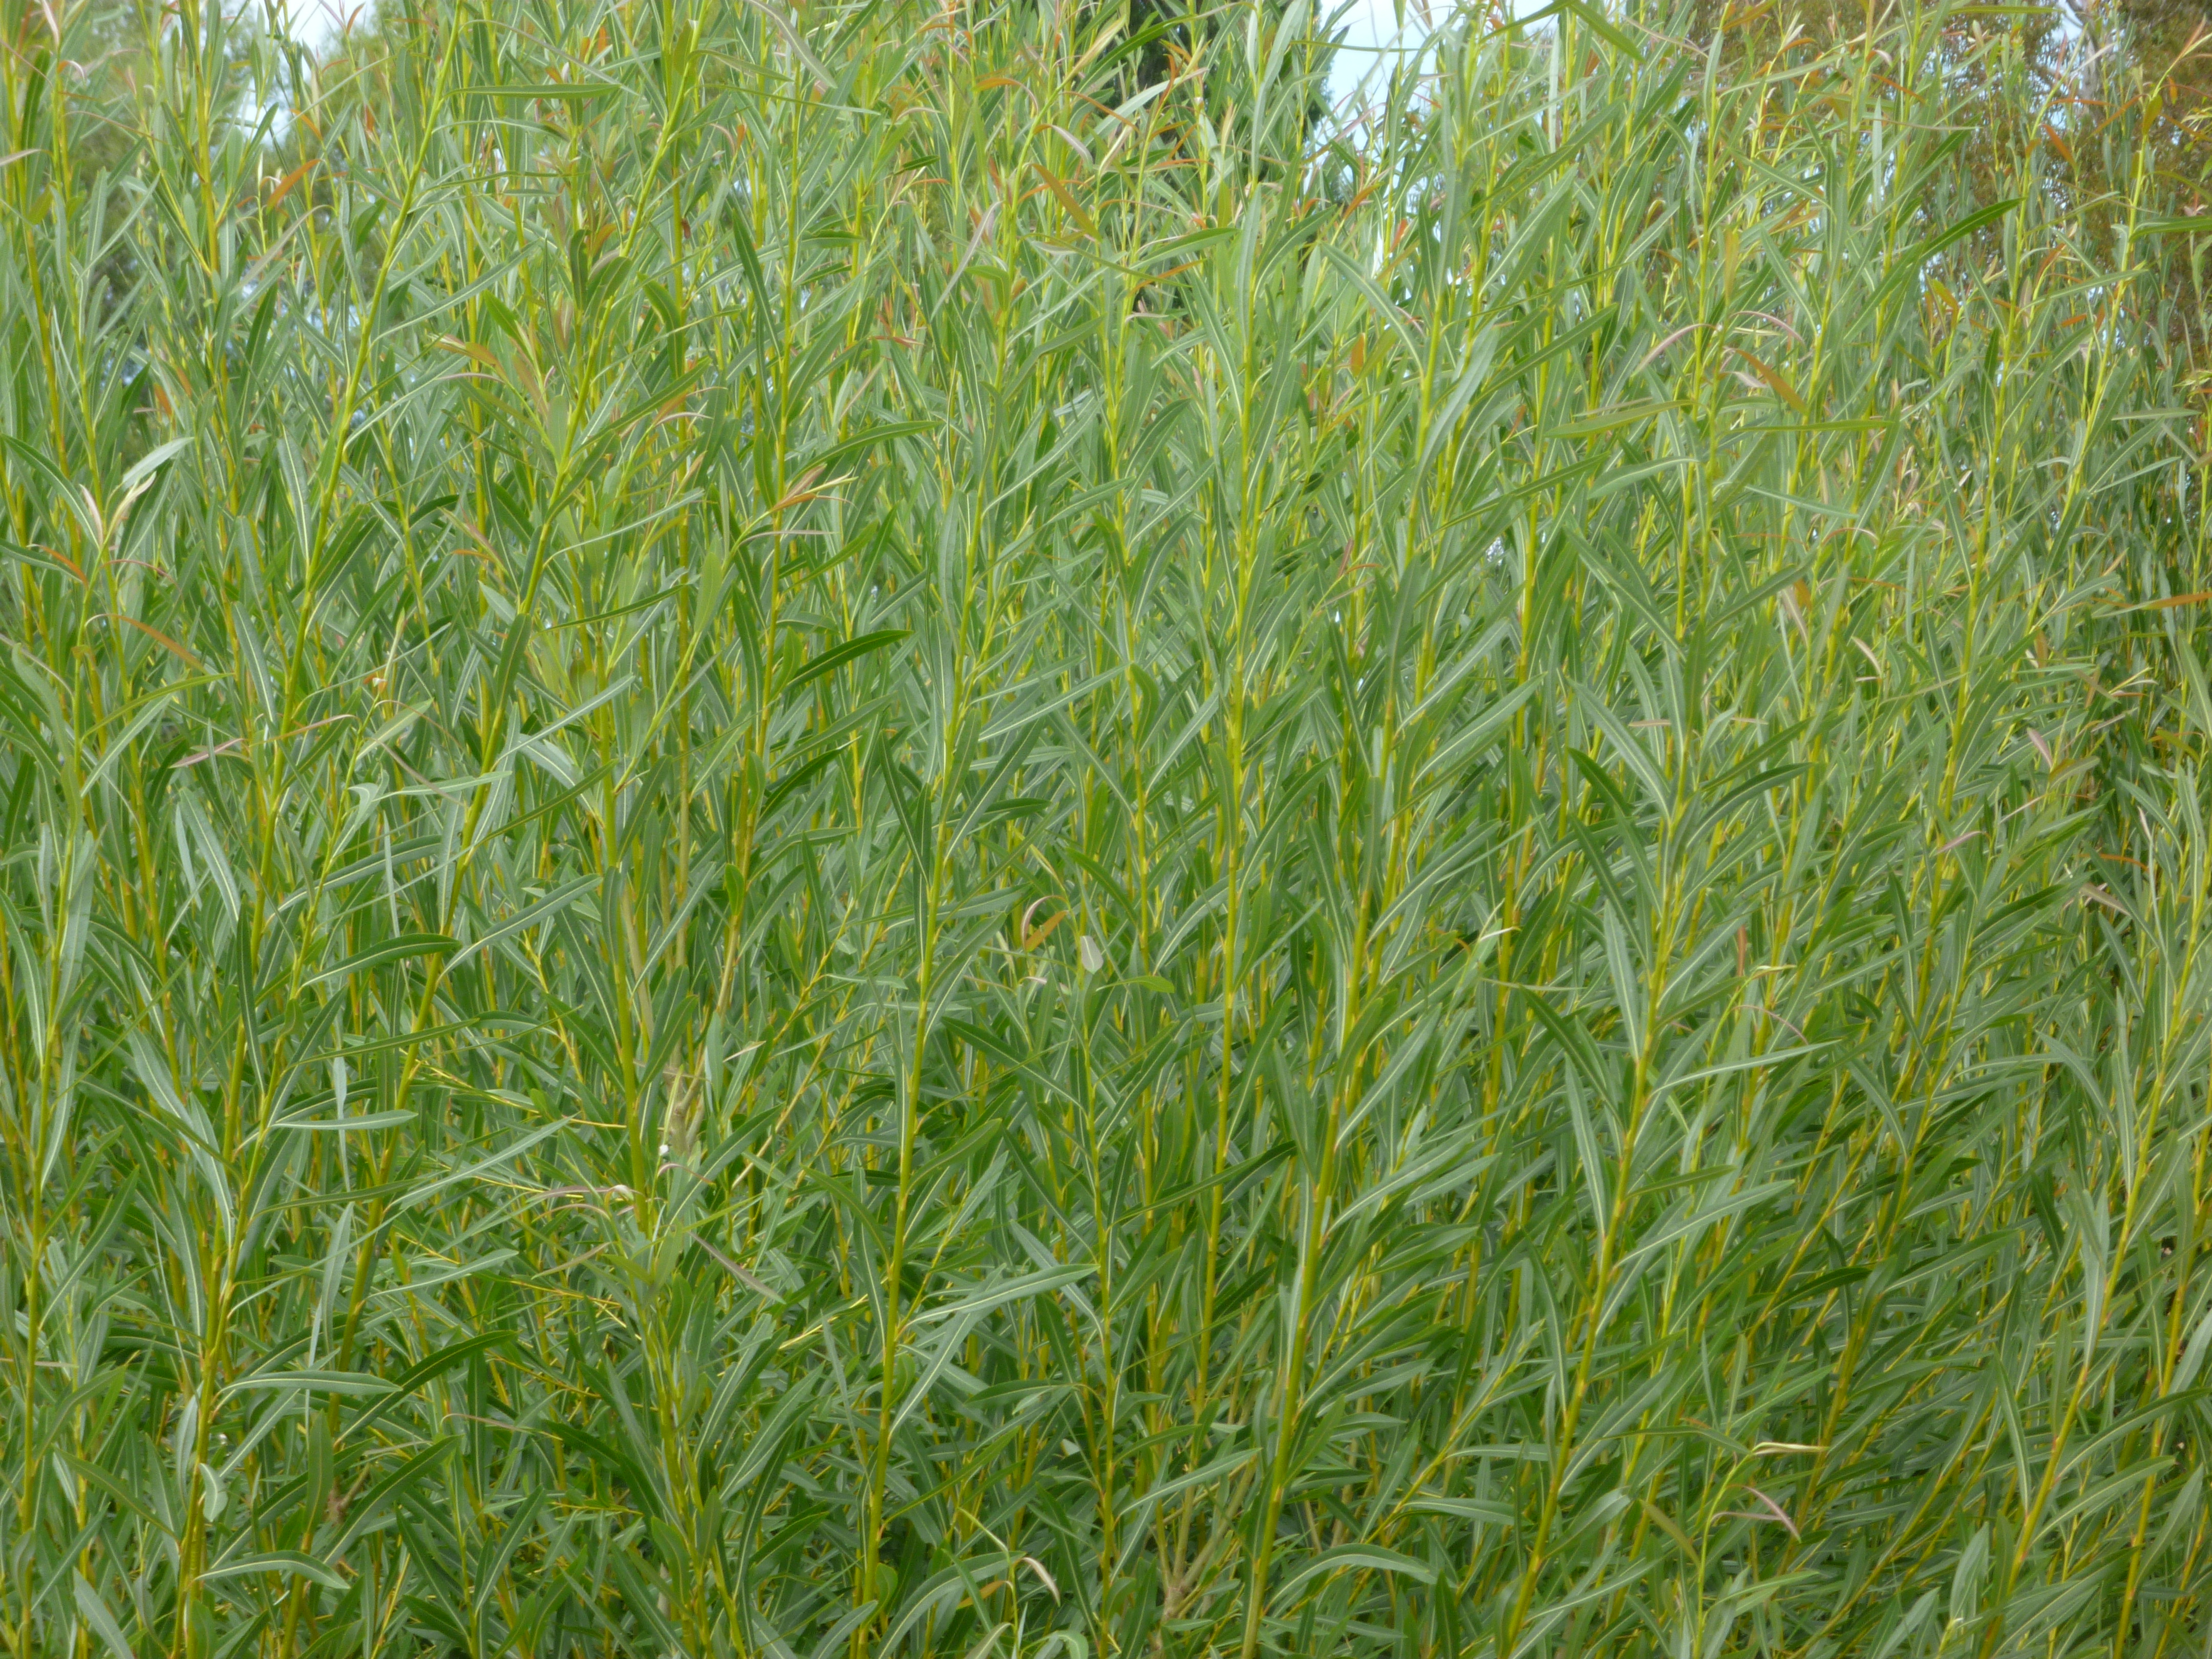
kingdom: Plantae
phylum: Tracheophyta
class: Magnoliopsida
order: Malpighiales
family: Salicaceae
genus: Salix
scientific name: Salix viminalis
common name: Osier
